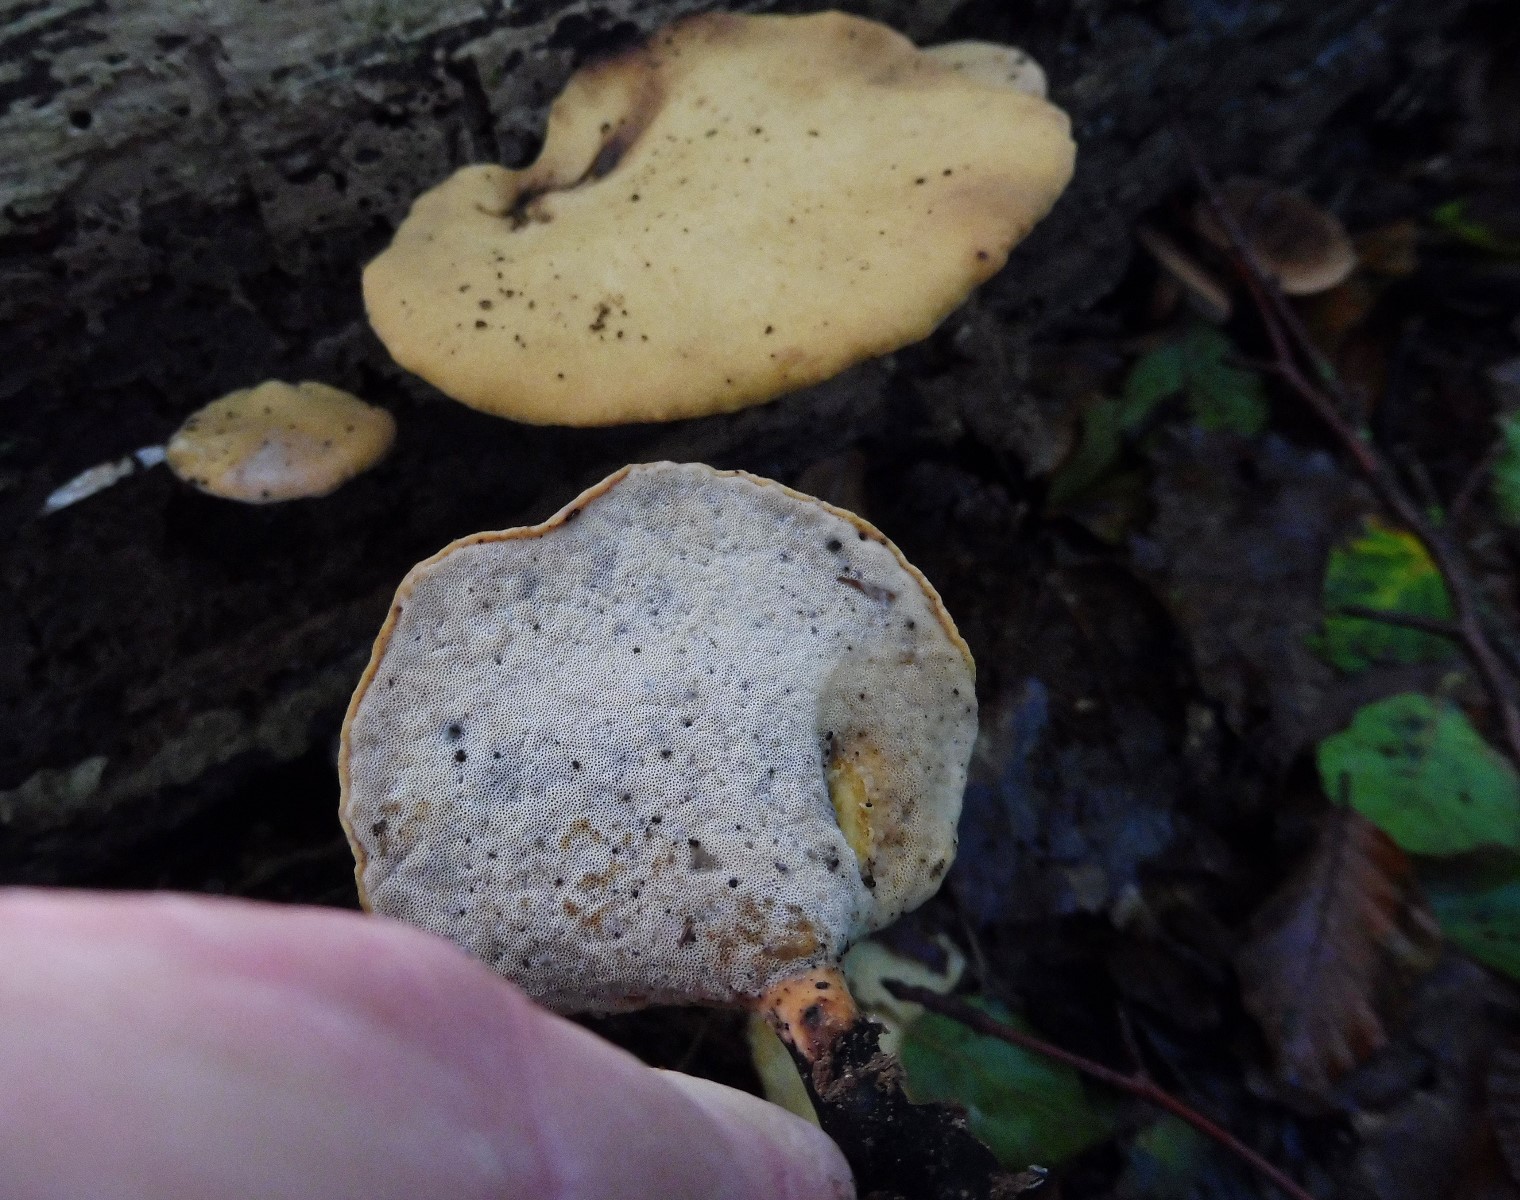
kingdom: Fungi
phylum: Basidiomycota
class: Agaricomycetes
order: Polyporales
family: Polyporaceae
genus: Cerioporus
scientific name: Cerioporus varius
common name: foranderlig stilkporesvamp
